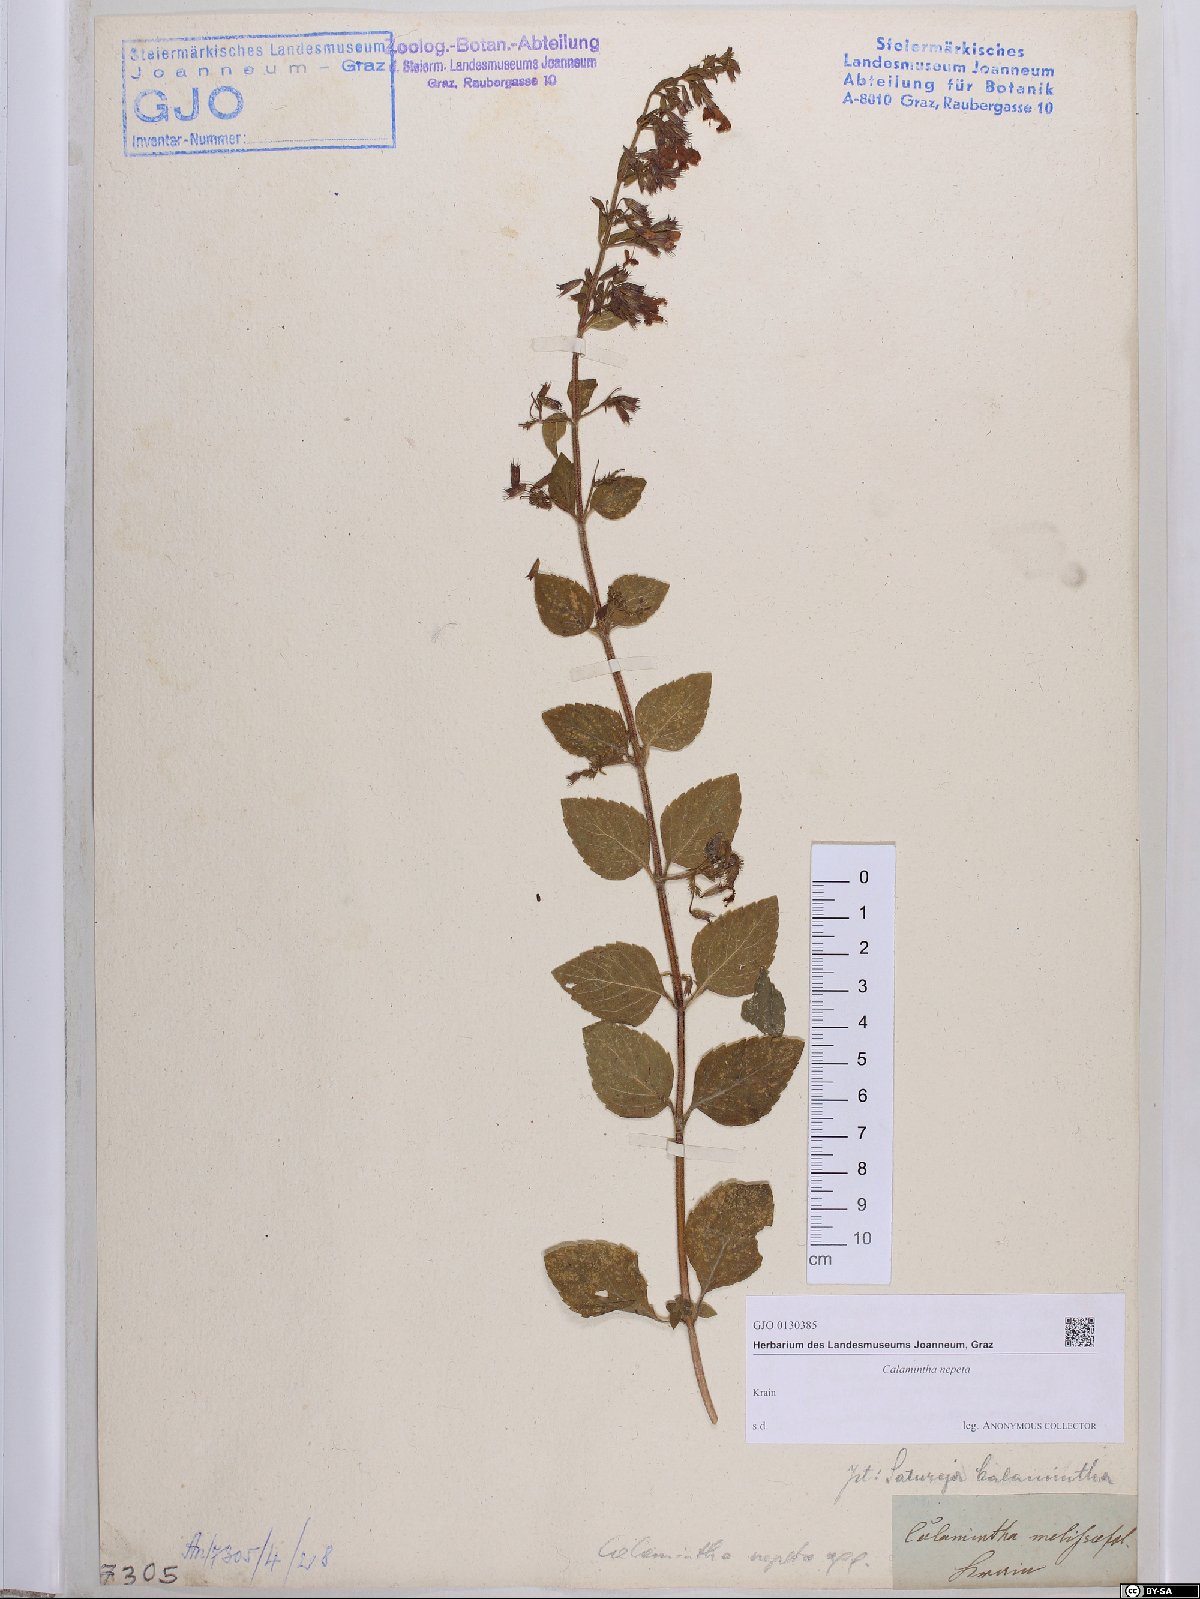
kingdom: Plantae
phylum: Tracheophyta
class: Magnoliopsida
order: Lamiales
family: Lamiaceae
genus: Clinopodium
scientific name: Clinopodium nepeta
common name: Lesser calamint
